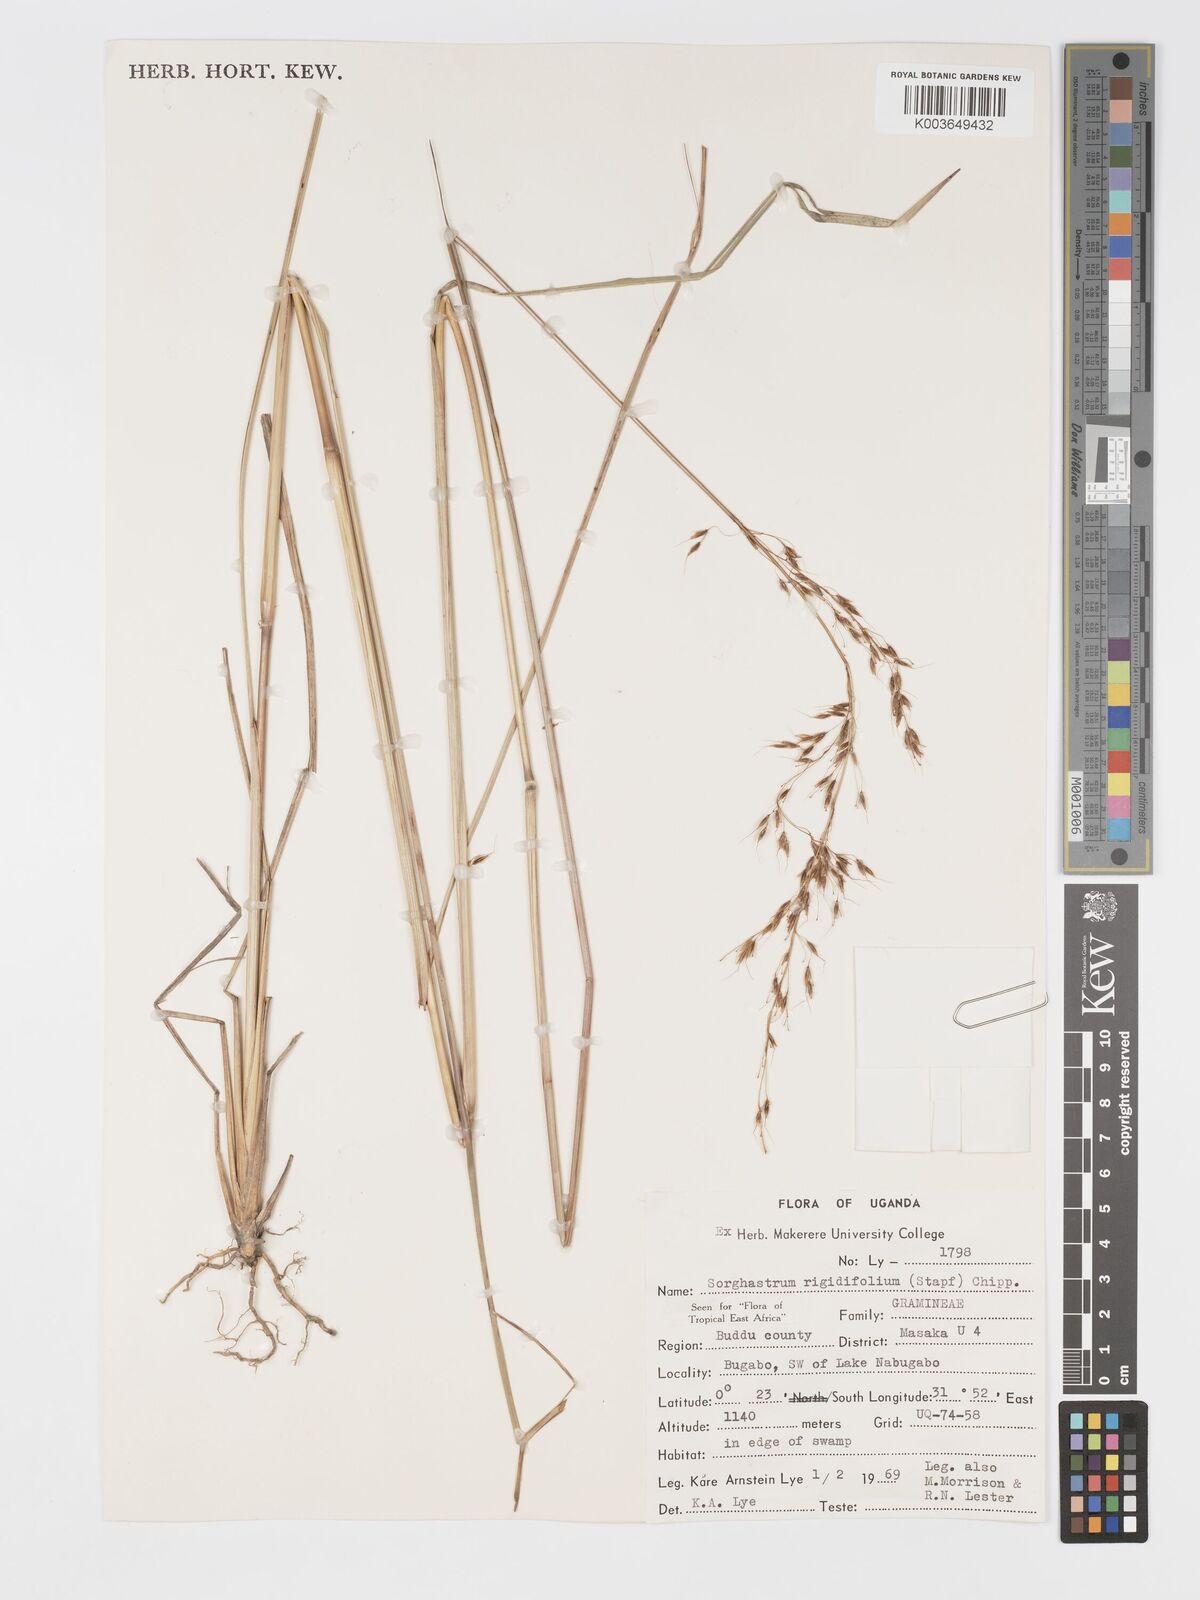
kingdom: Plantae
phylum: Tracheophyta
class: Liliopsida
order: Poales
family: Poaceae
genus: Sorghastrum
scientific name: Sorghastrum stipoides
